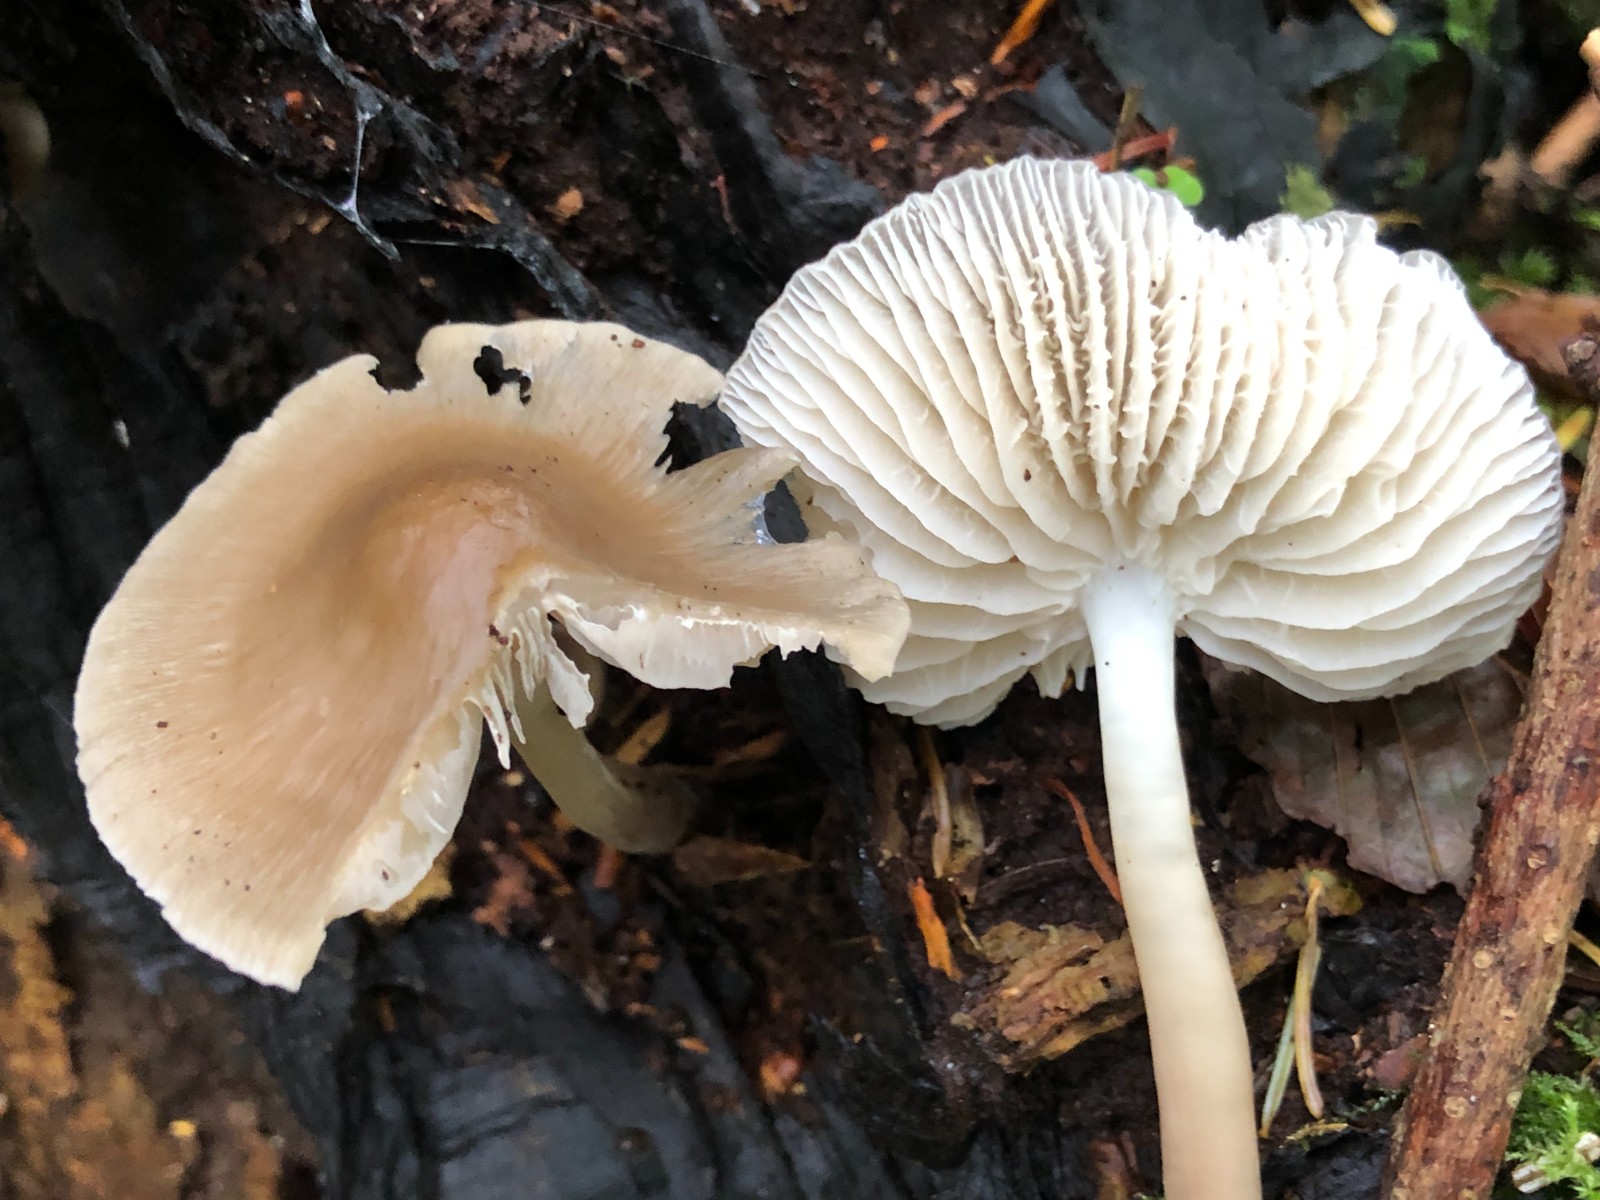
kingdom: Fungi
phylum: Basidiomycota
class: Agaricomycetes
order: Agaricales
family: Mycenaceae
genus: Mycena
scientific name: Mycena galericulata
